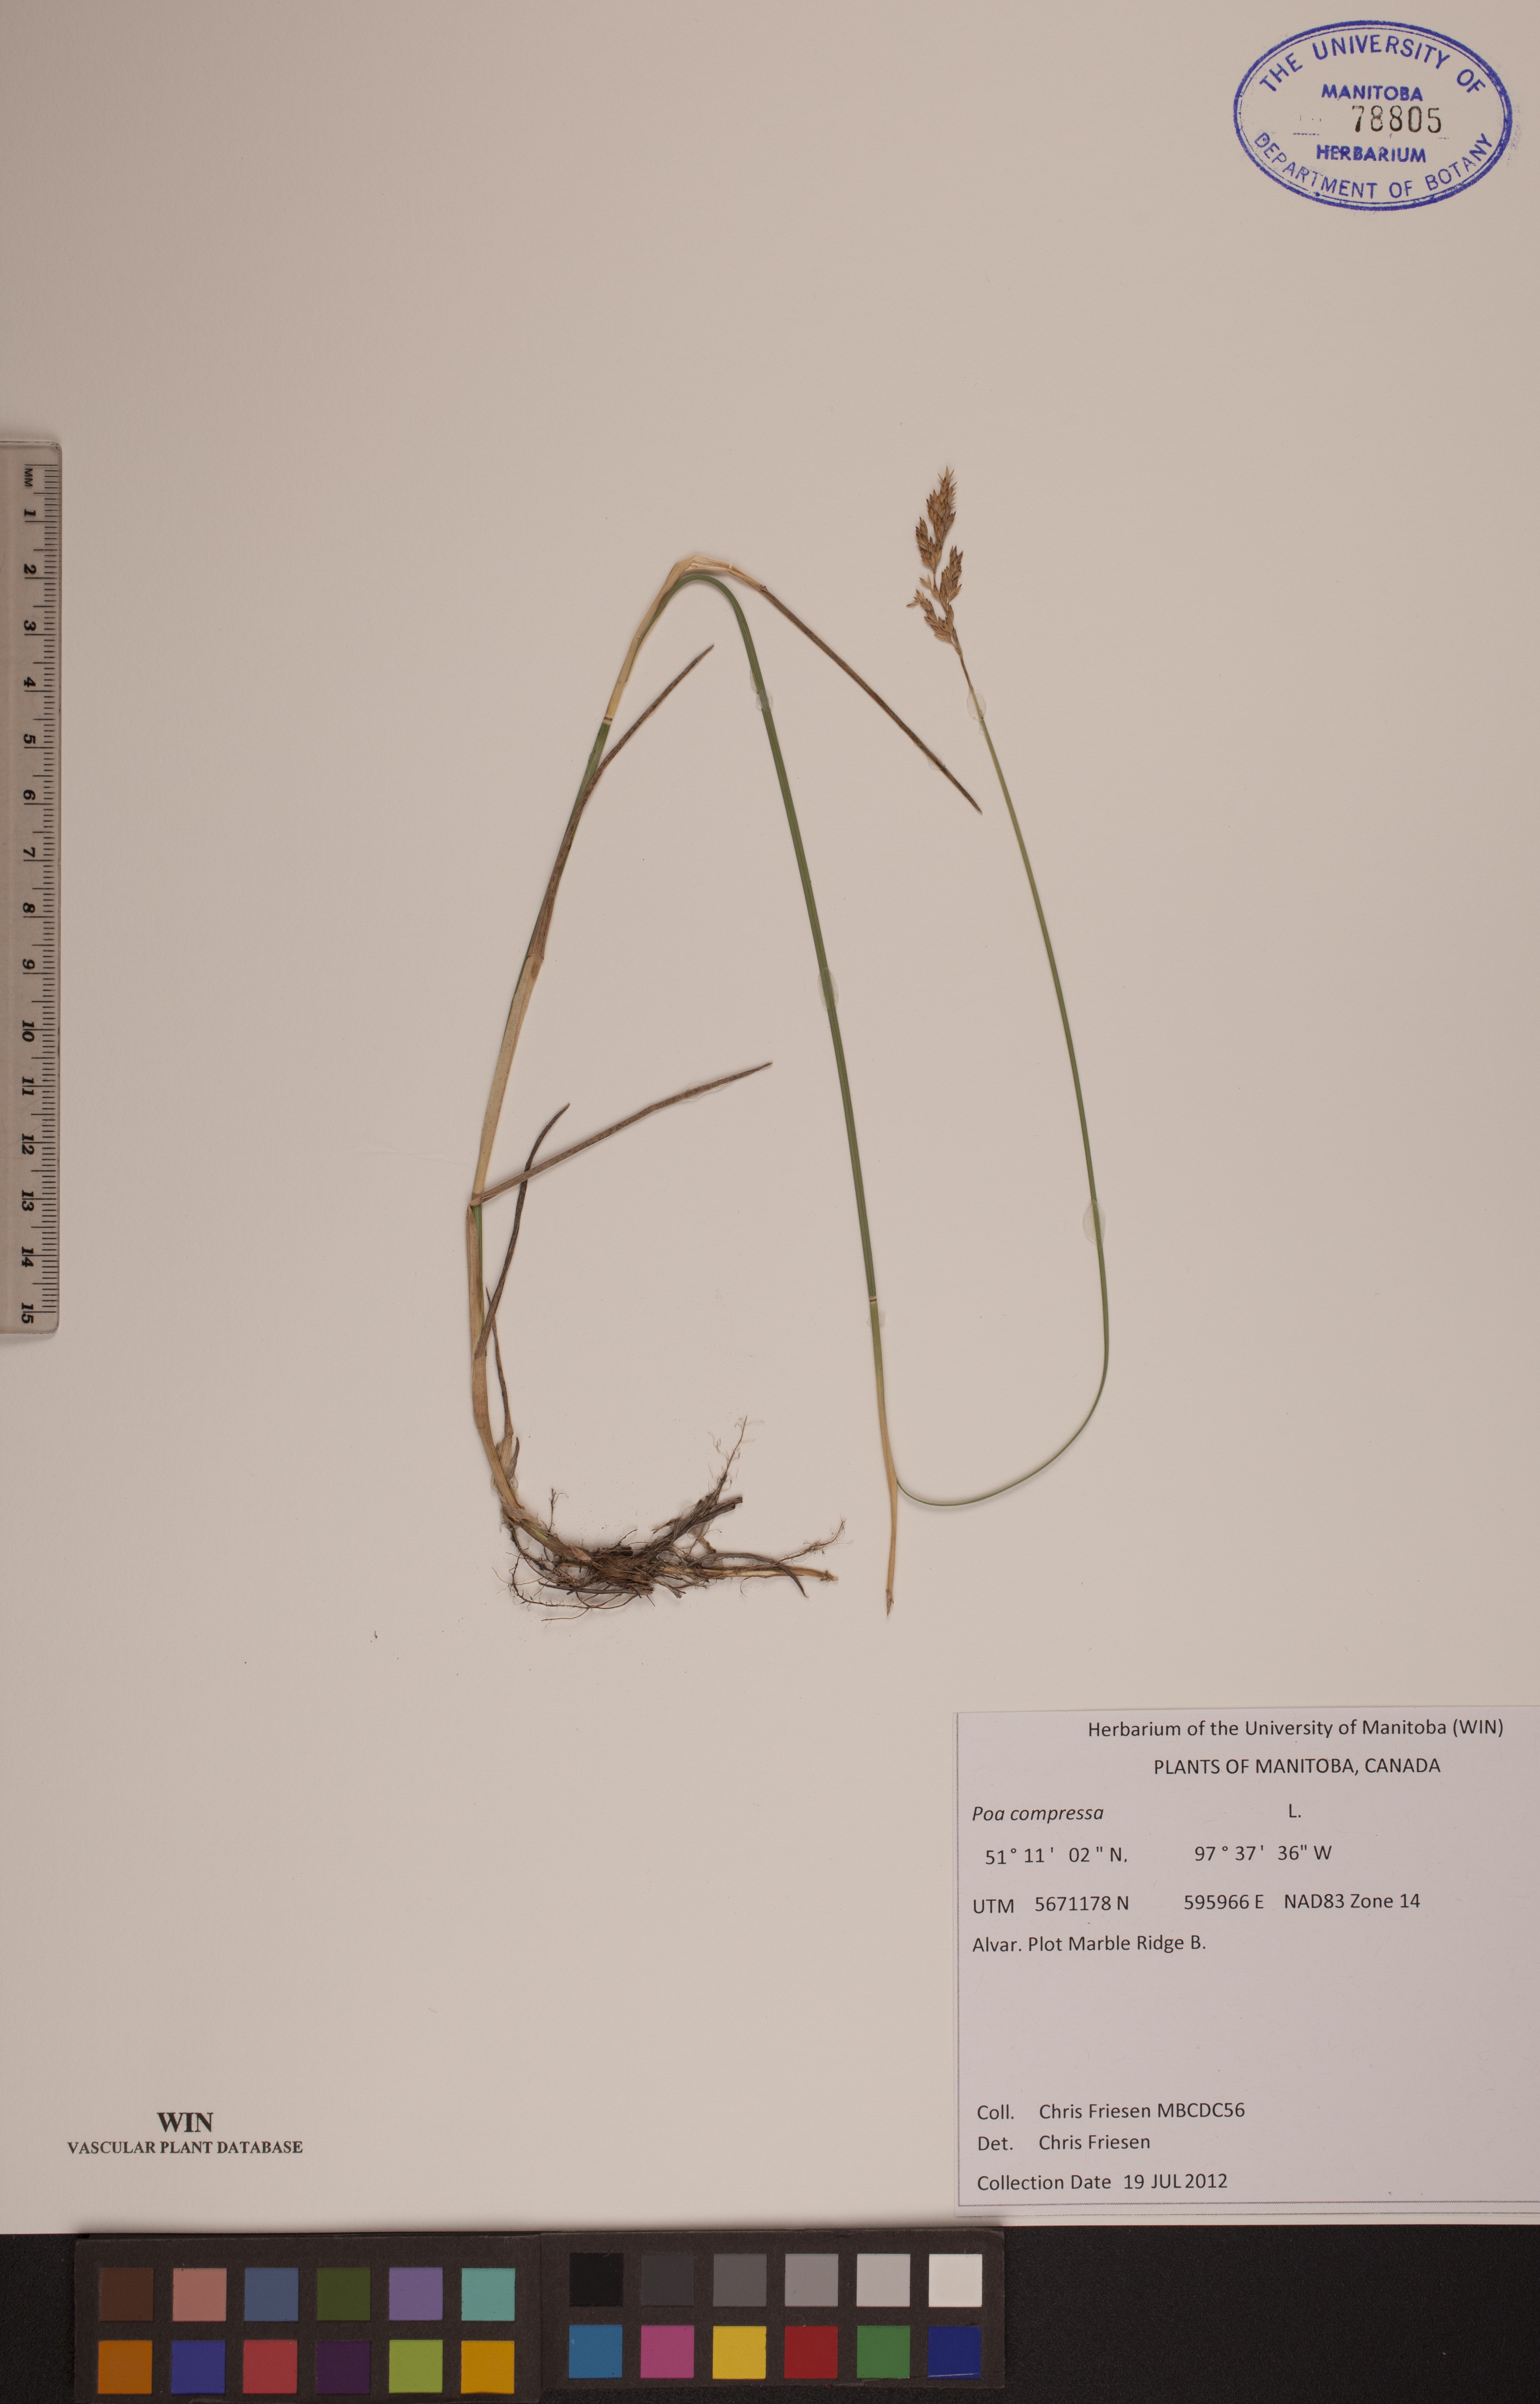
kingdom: Plantae
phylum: Tracheophyta
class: Liliopsida
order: Poales
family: Poaceae
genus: Poa
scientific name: Poa compressa
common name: Canada bluegrass
